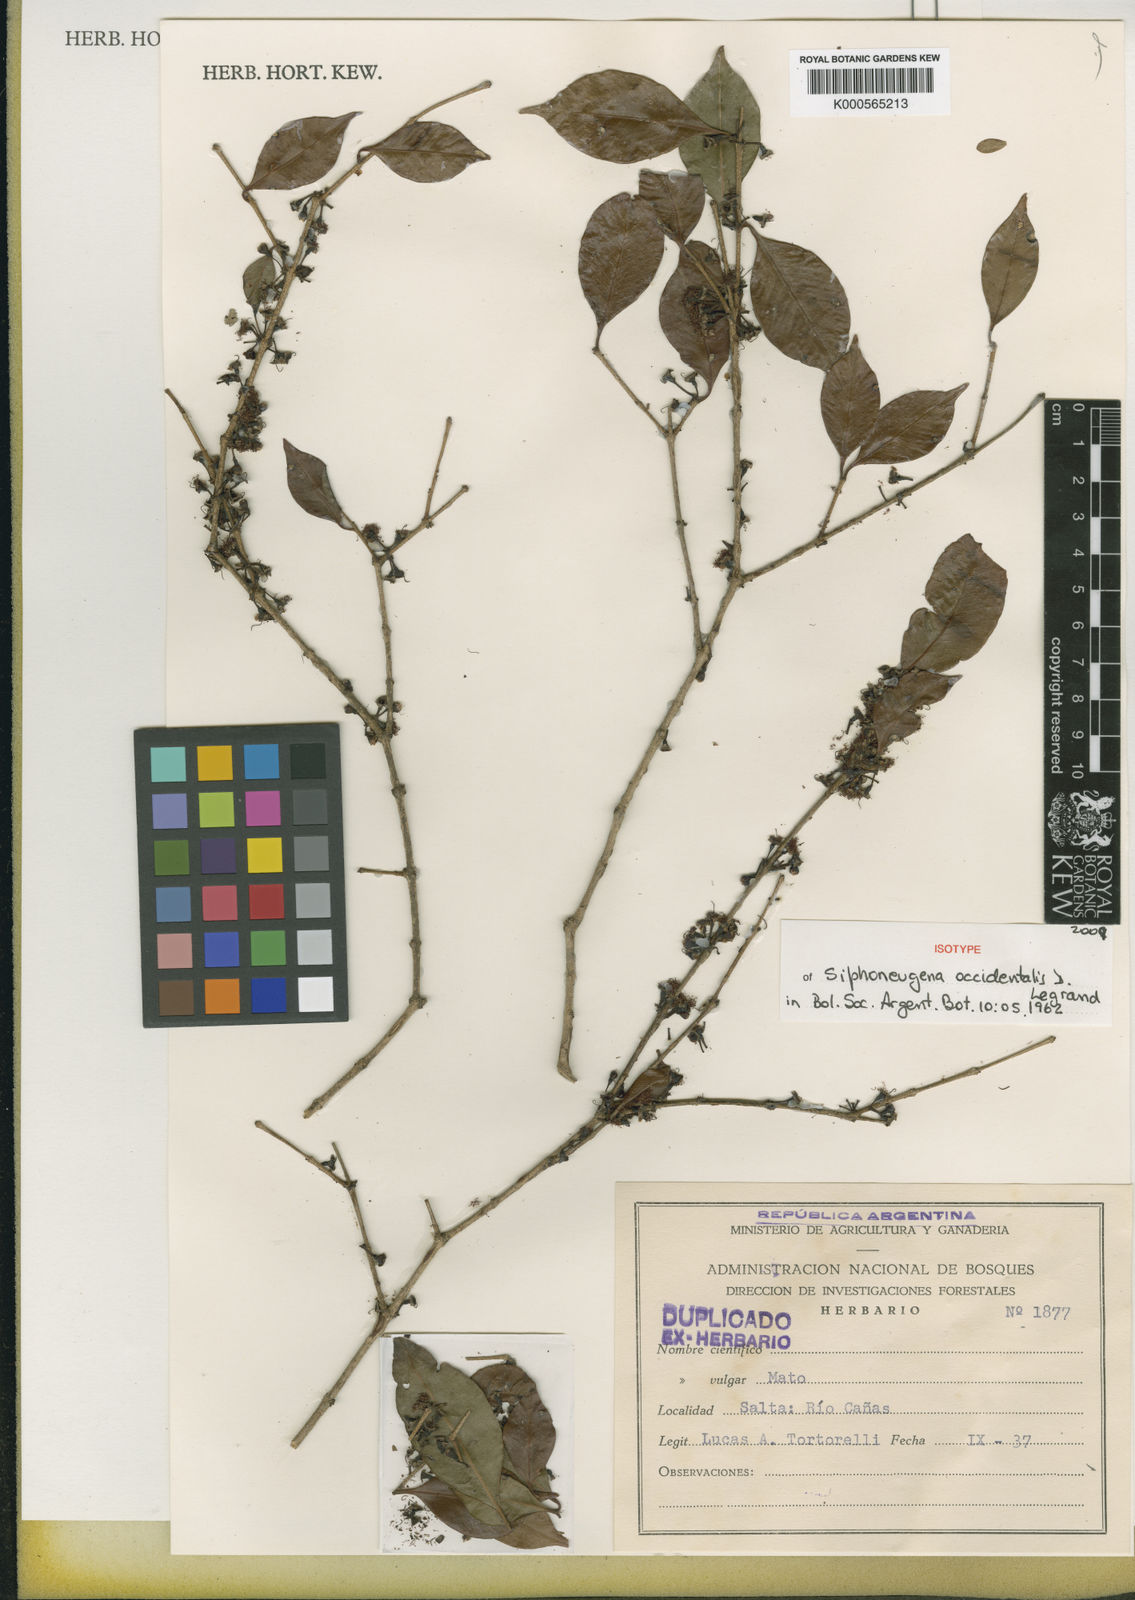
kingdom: Plantae
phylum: Tracheophyta
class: Magnoliopsida
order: Myrtales
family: Myrtaceae
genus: Siphoneugena
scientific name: Siphoneugena occidentalis
